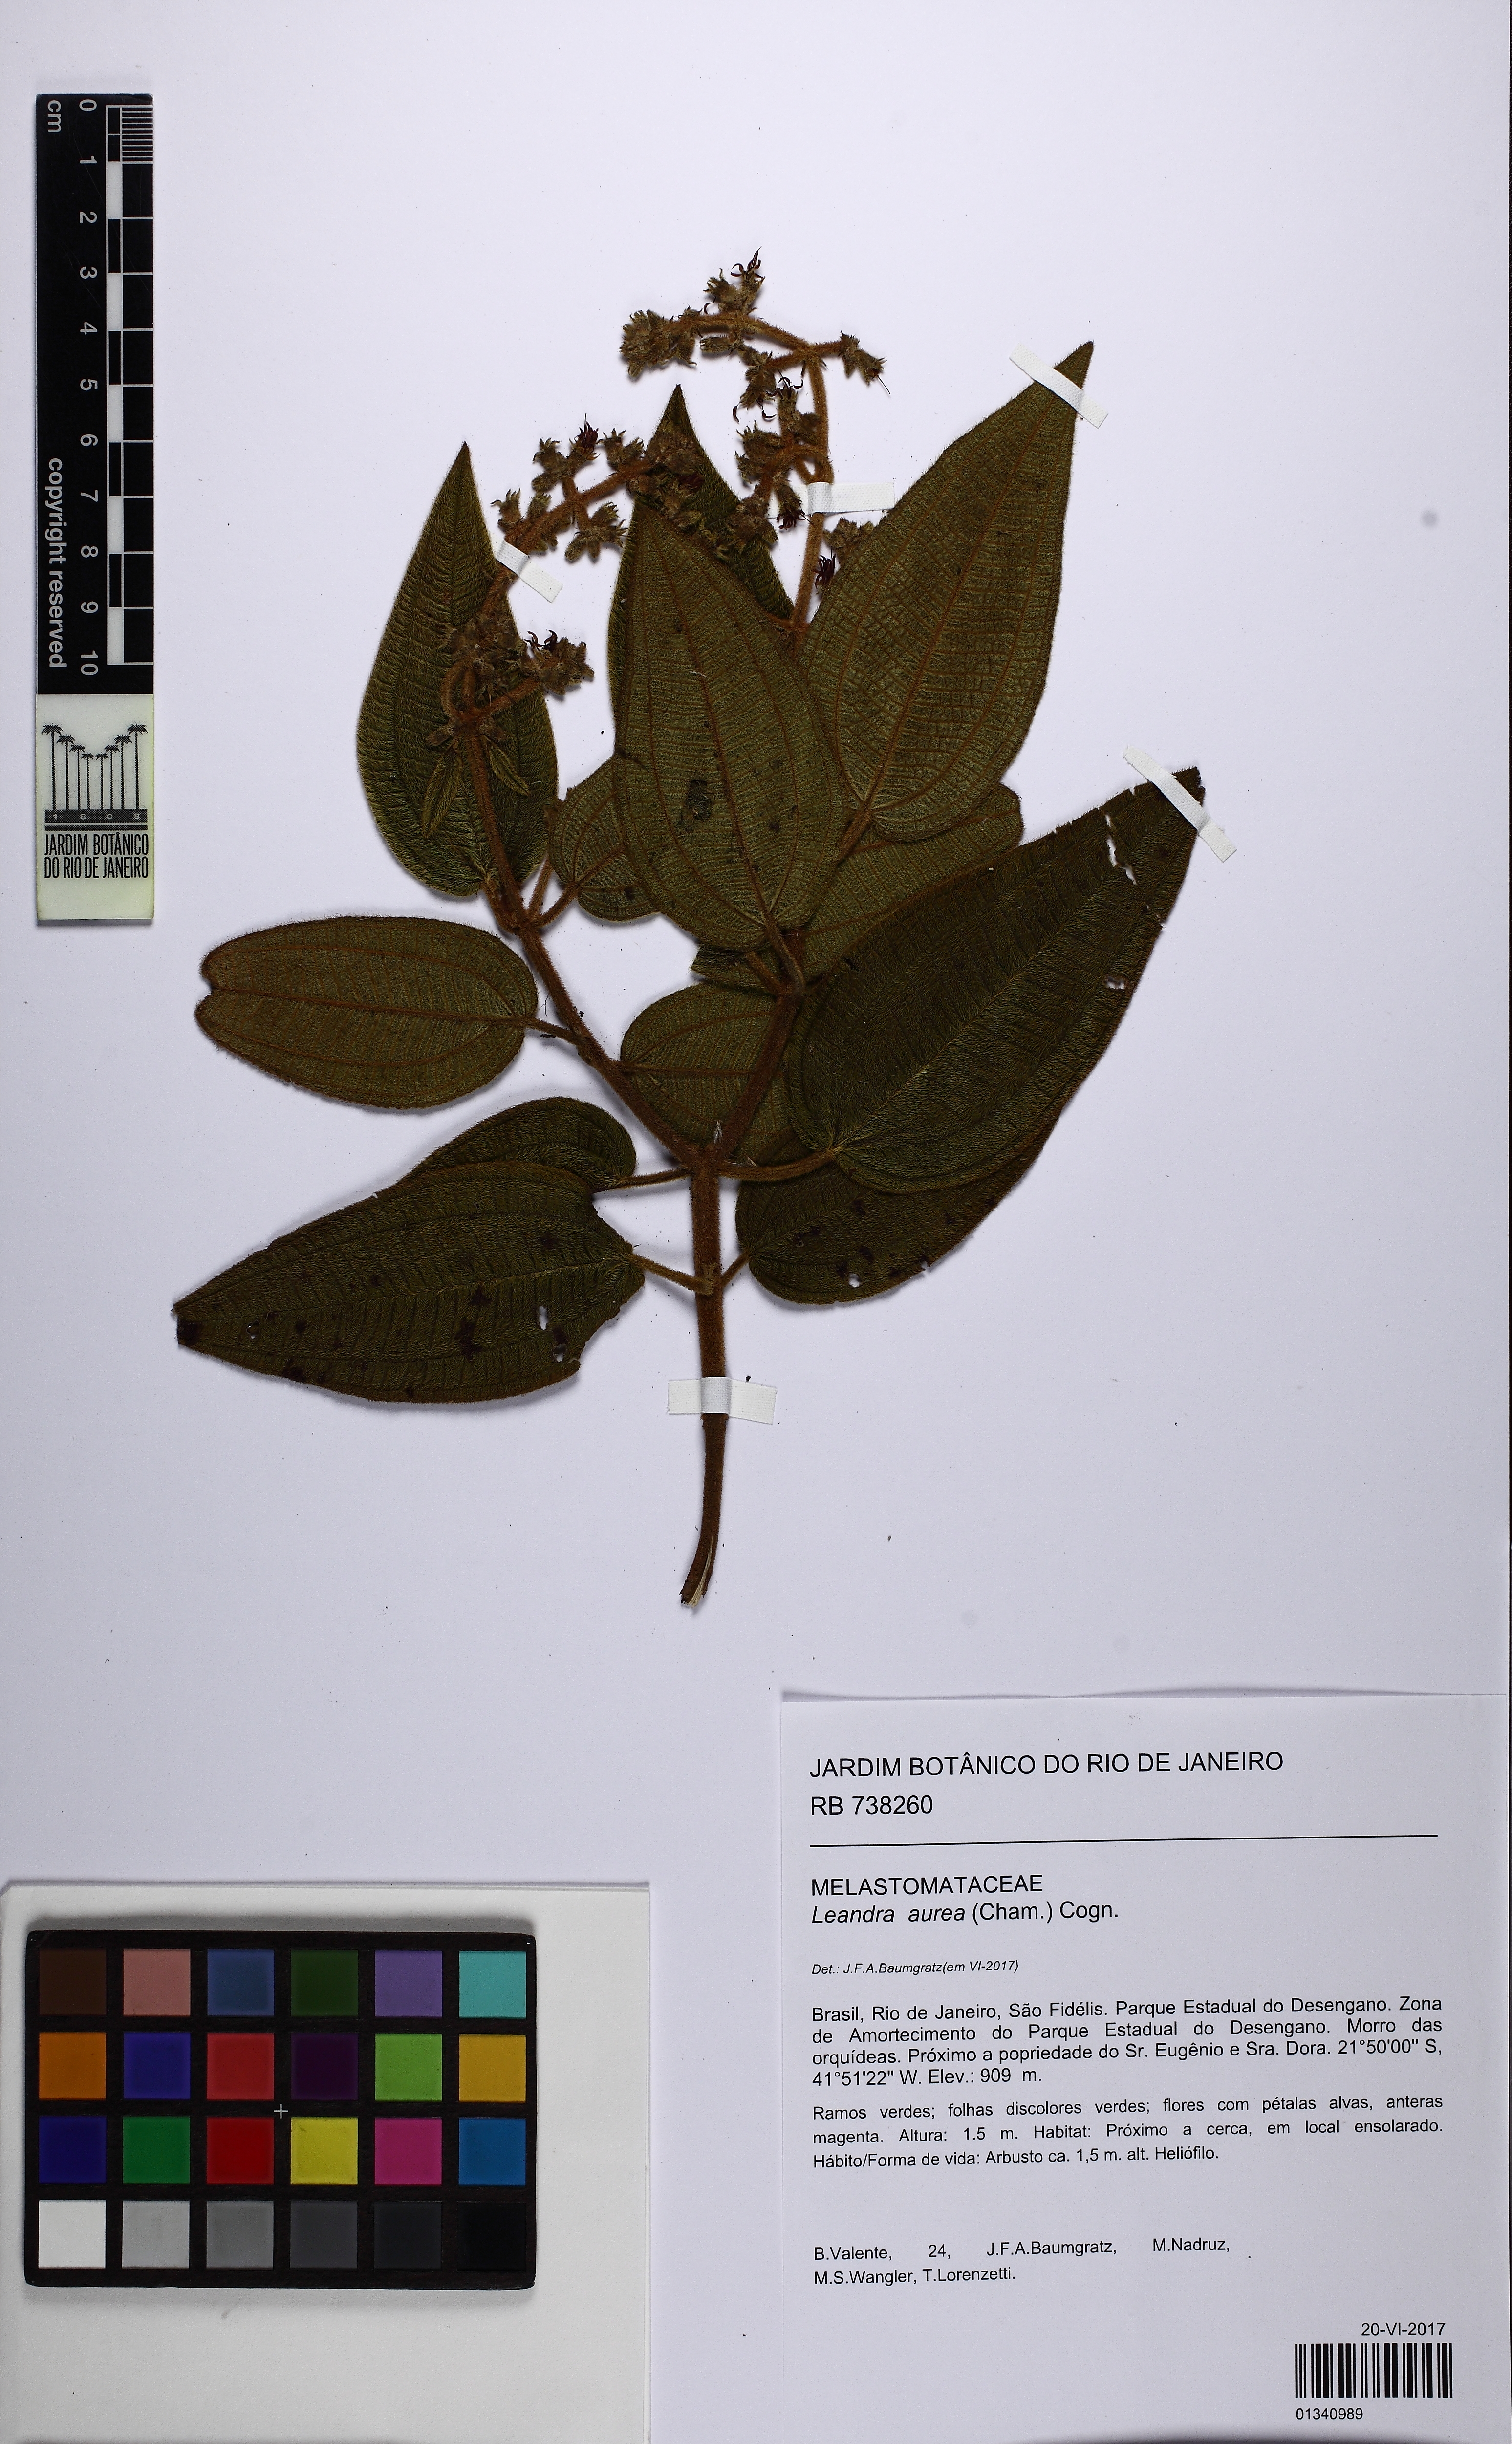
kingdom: Plantae
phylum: Tracheophyta
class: Magnoliopsida
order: Myrtales
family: Melastomataceae
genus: Miconia
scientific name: Miconia auricoma
